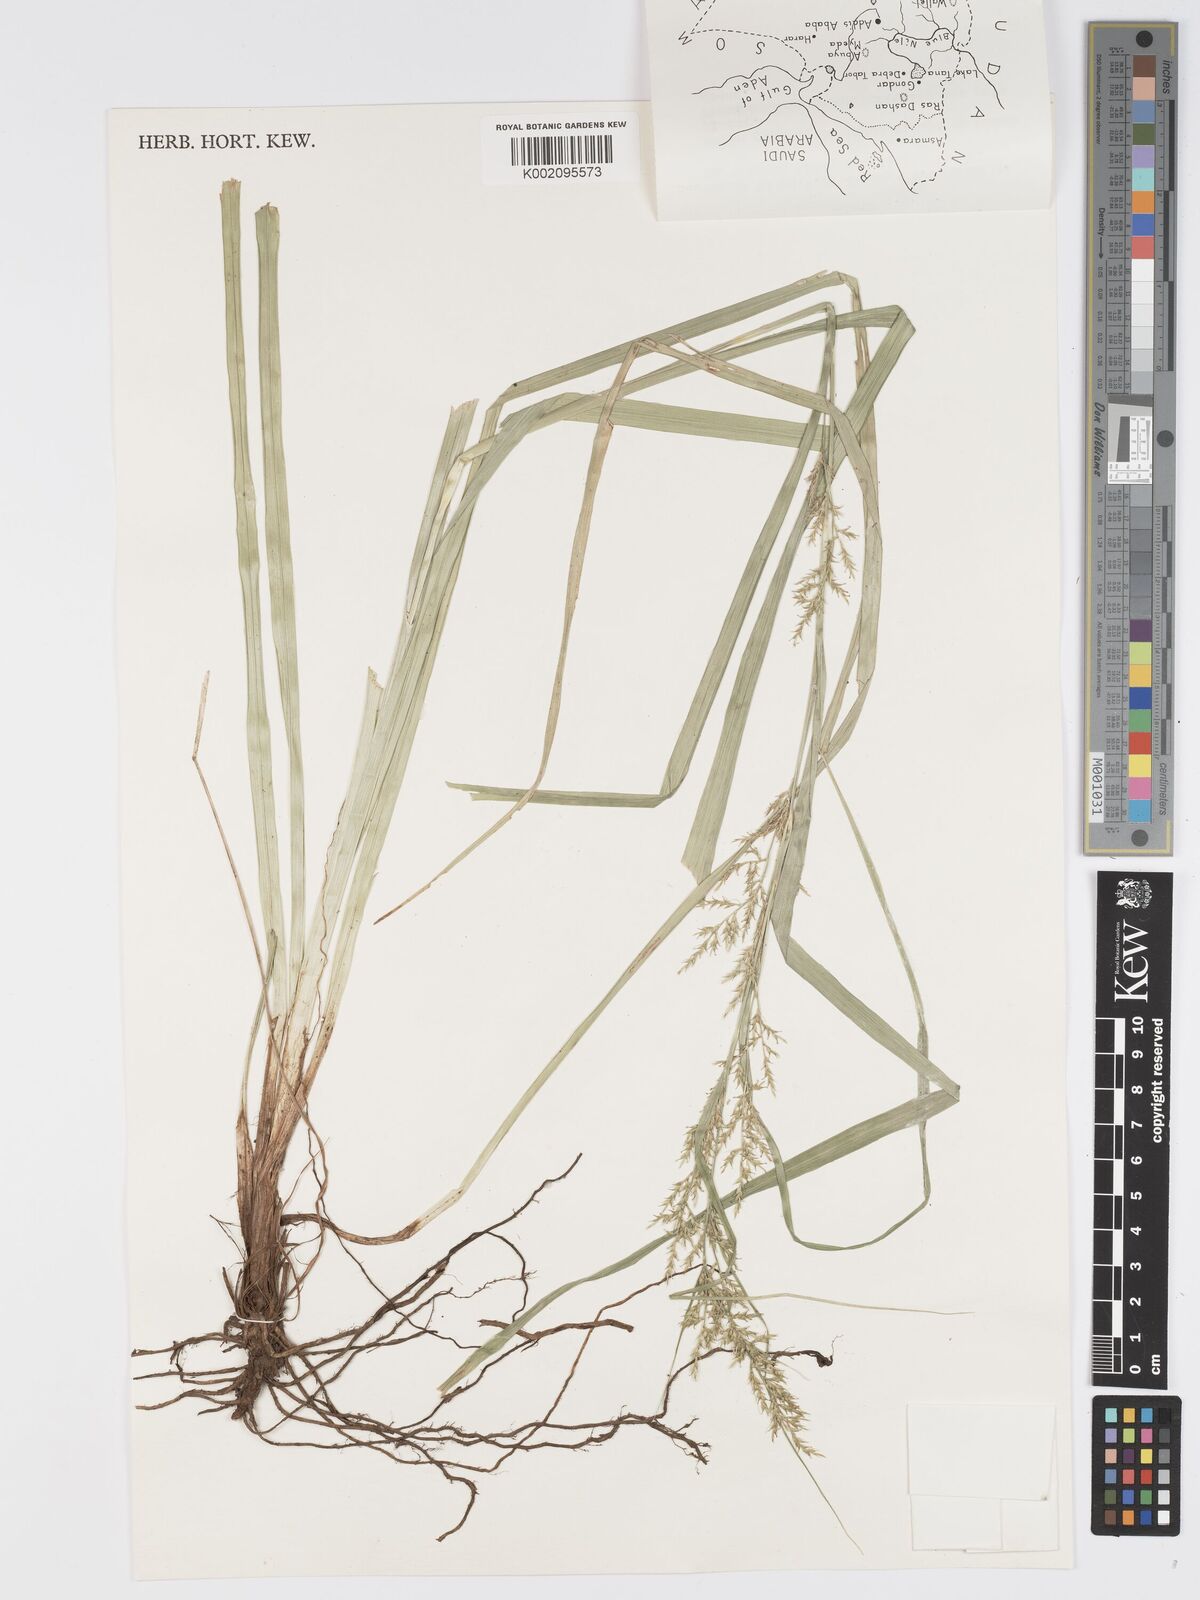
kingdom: Plantae
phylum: Tracheophyta
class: Liliopsida
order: Poales
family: Cyperaceae
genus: Carex
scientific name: Carex chlorosaccus
